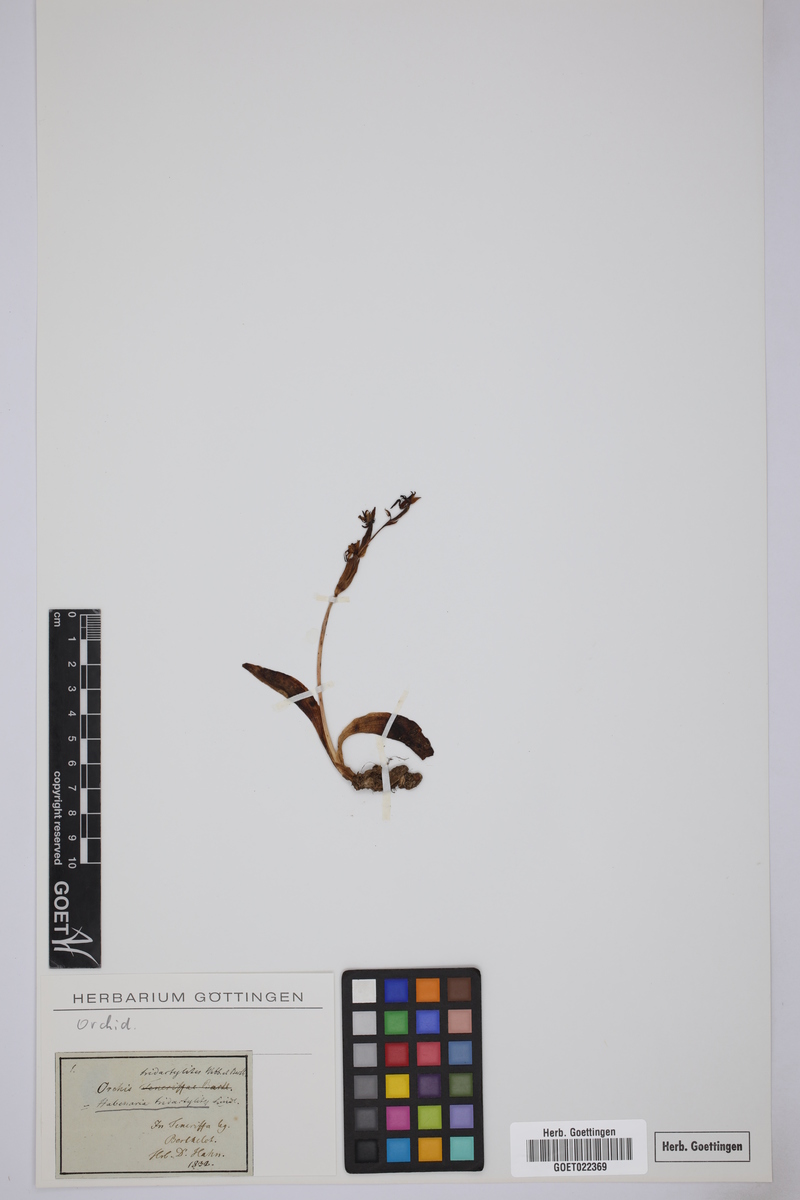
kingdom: Plantae
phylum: Tracheophyta
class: Liliopsida
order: Asparagales
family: Orchidaceae
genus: Habenaria
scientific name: Habenaria tridactylites
